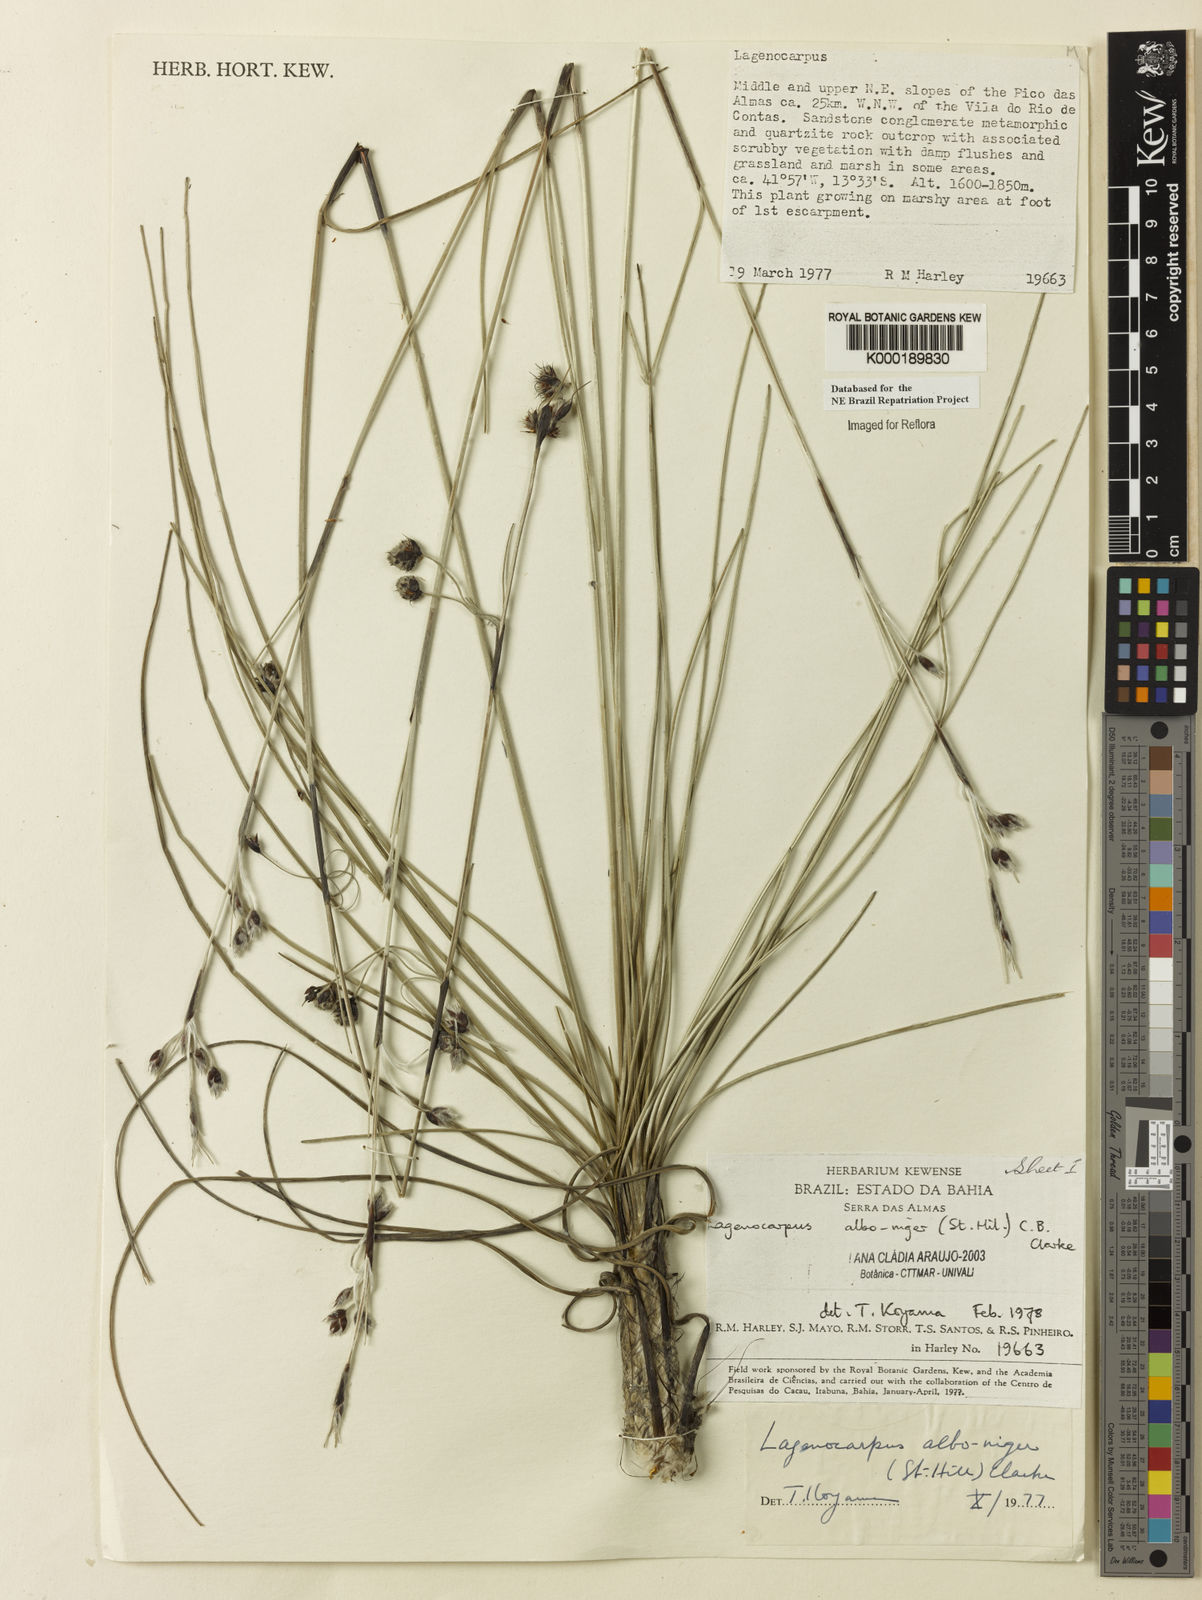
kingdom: Plantae
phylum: Tracheophyta
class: Liliopsida
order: Poales
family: Cyperaceae
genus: Lagenocarpus
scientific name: Lagenocarpus alboniger
